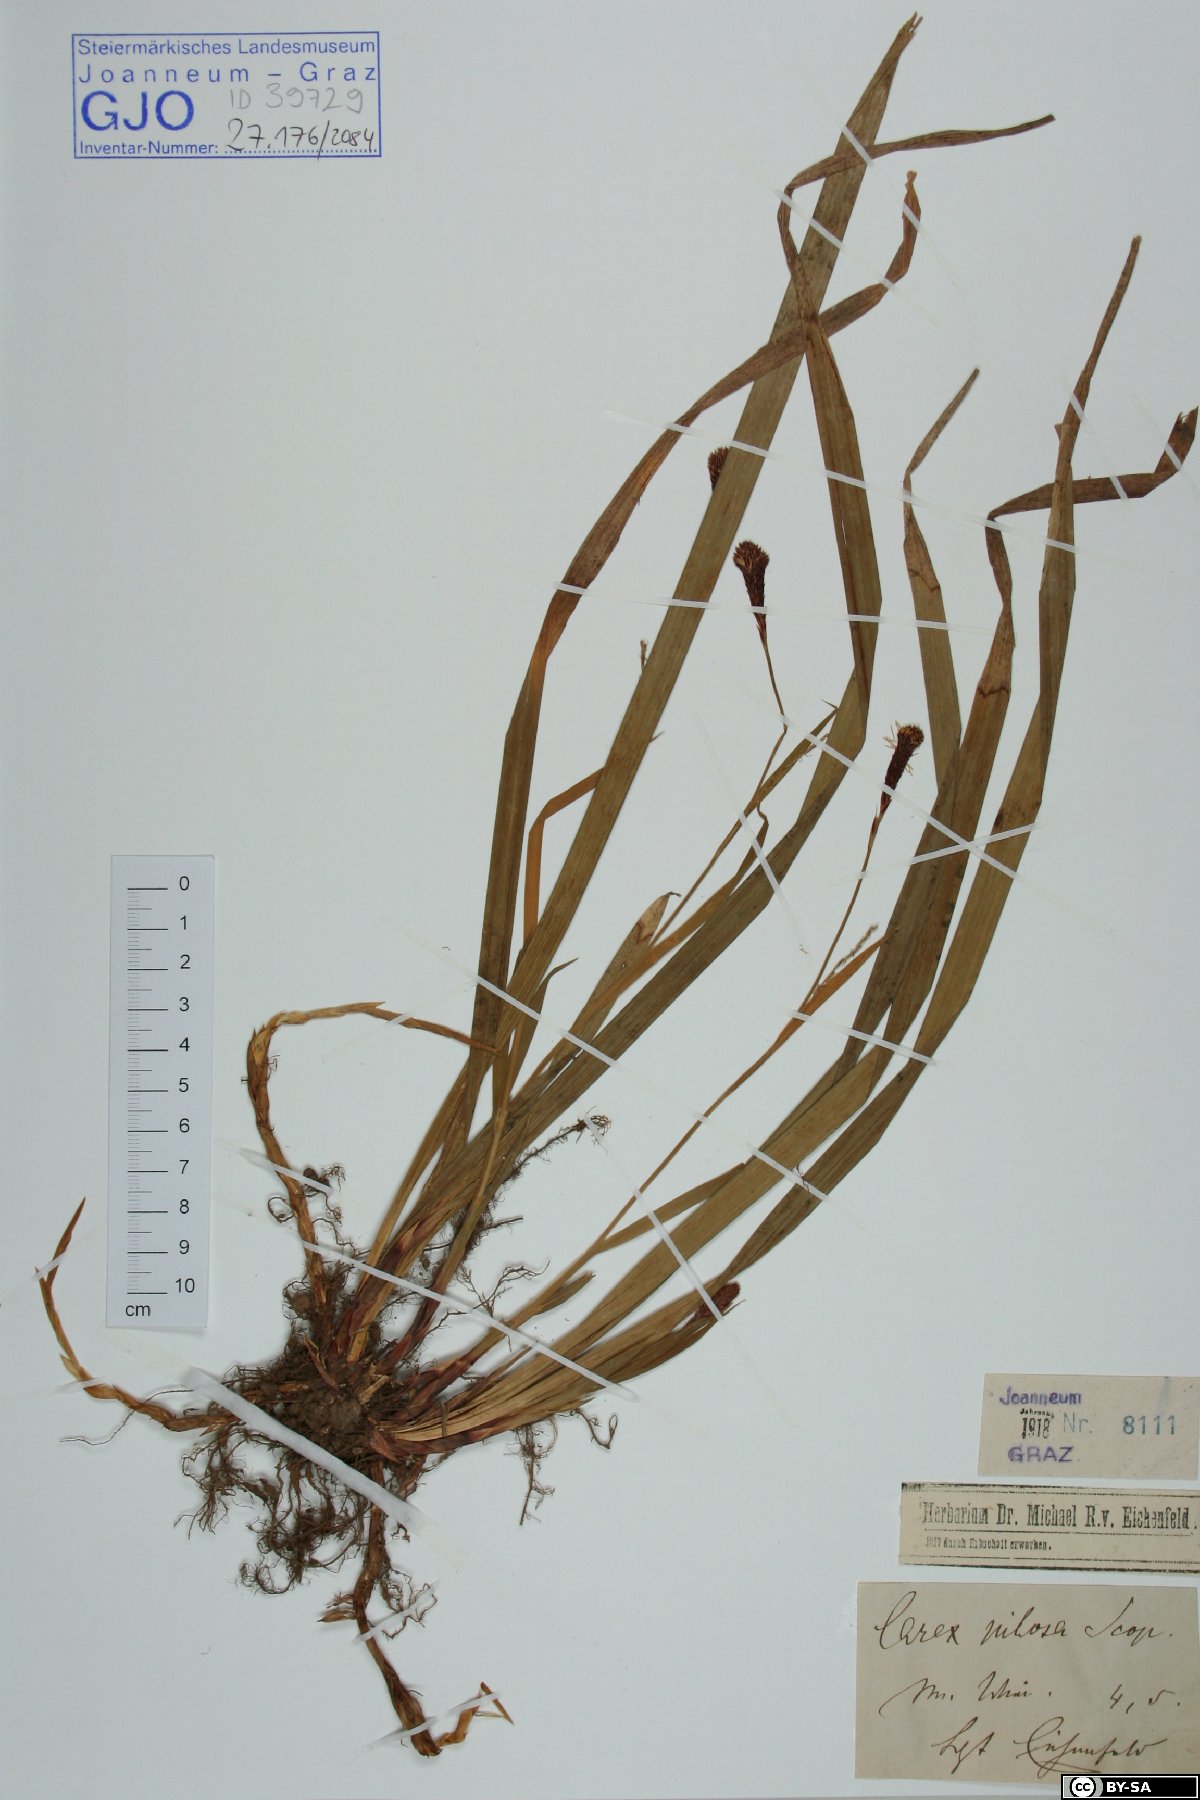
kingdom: Plantae
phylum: Tracheophyta
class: Liliopsida
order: Poales
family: Cyperaceae
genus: Carex
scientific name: Carex pilosa
